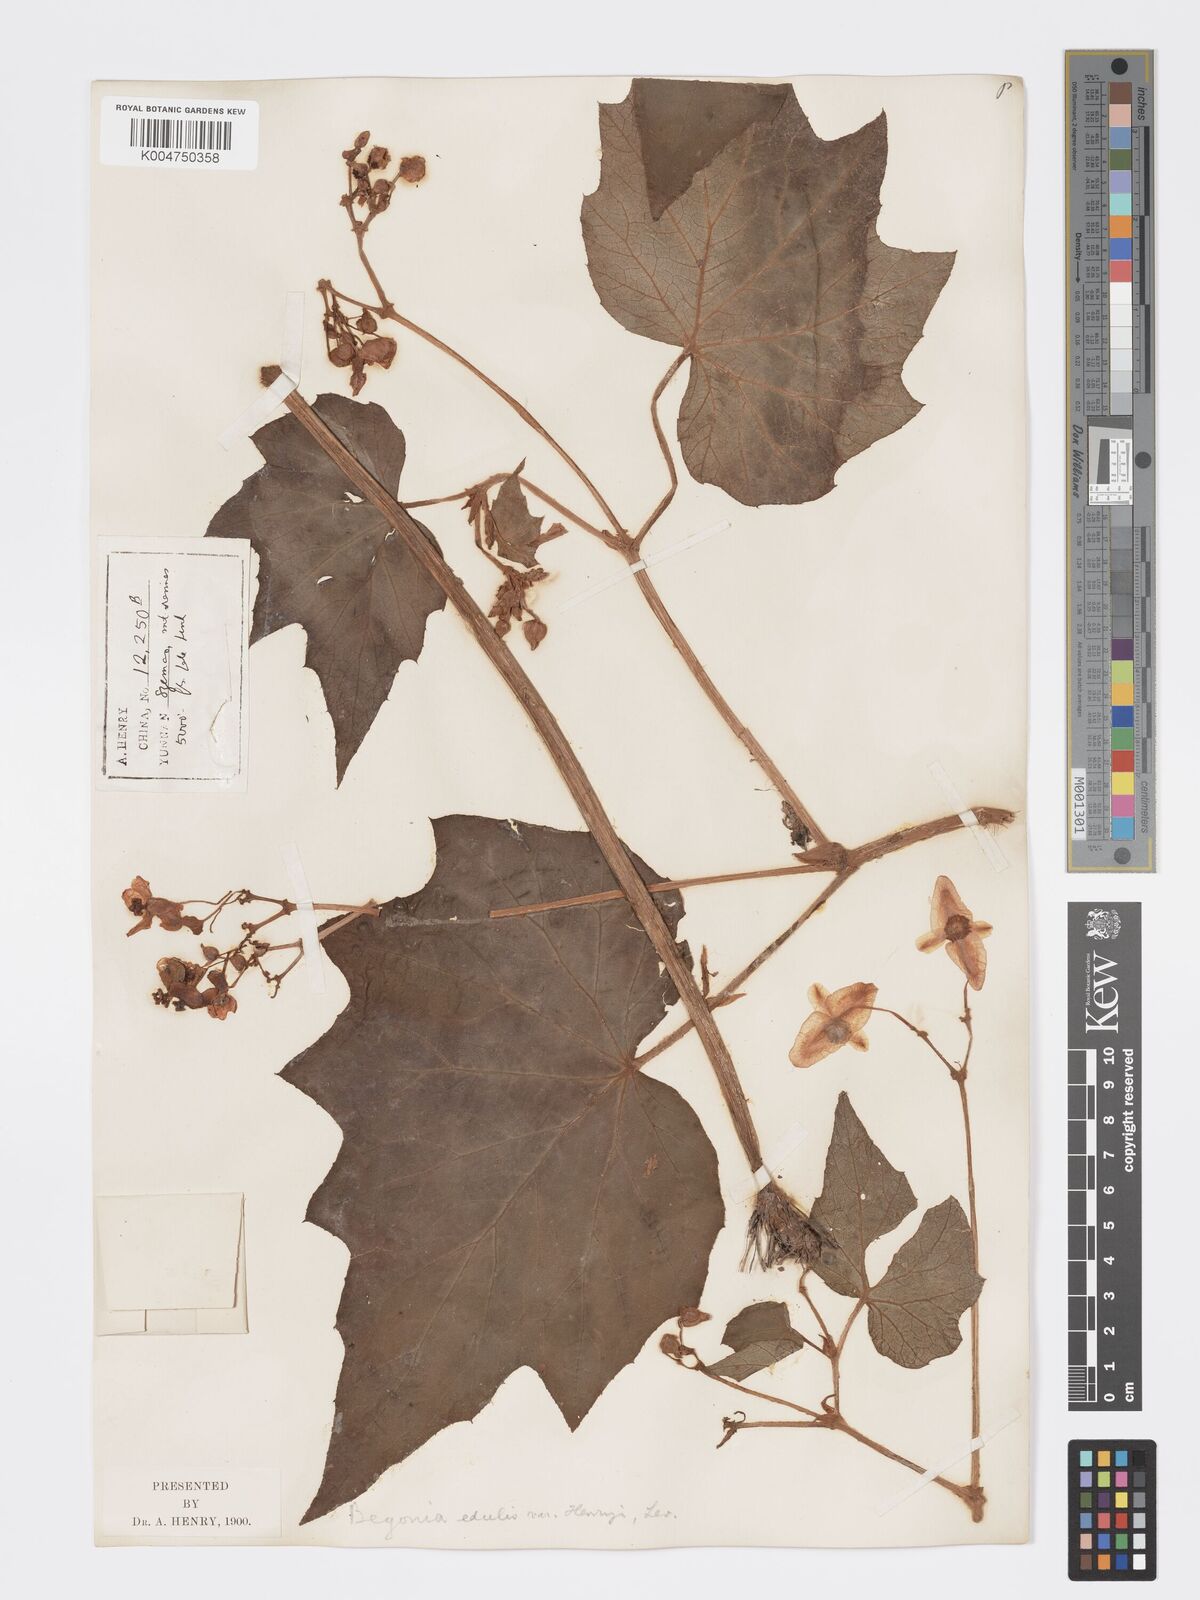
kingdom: Plantae
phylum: Tracheophyta
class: Magnoliopsida
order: Cucurbitales
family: Begoniaceae
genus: Begonia
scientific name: Begonia palmata
